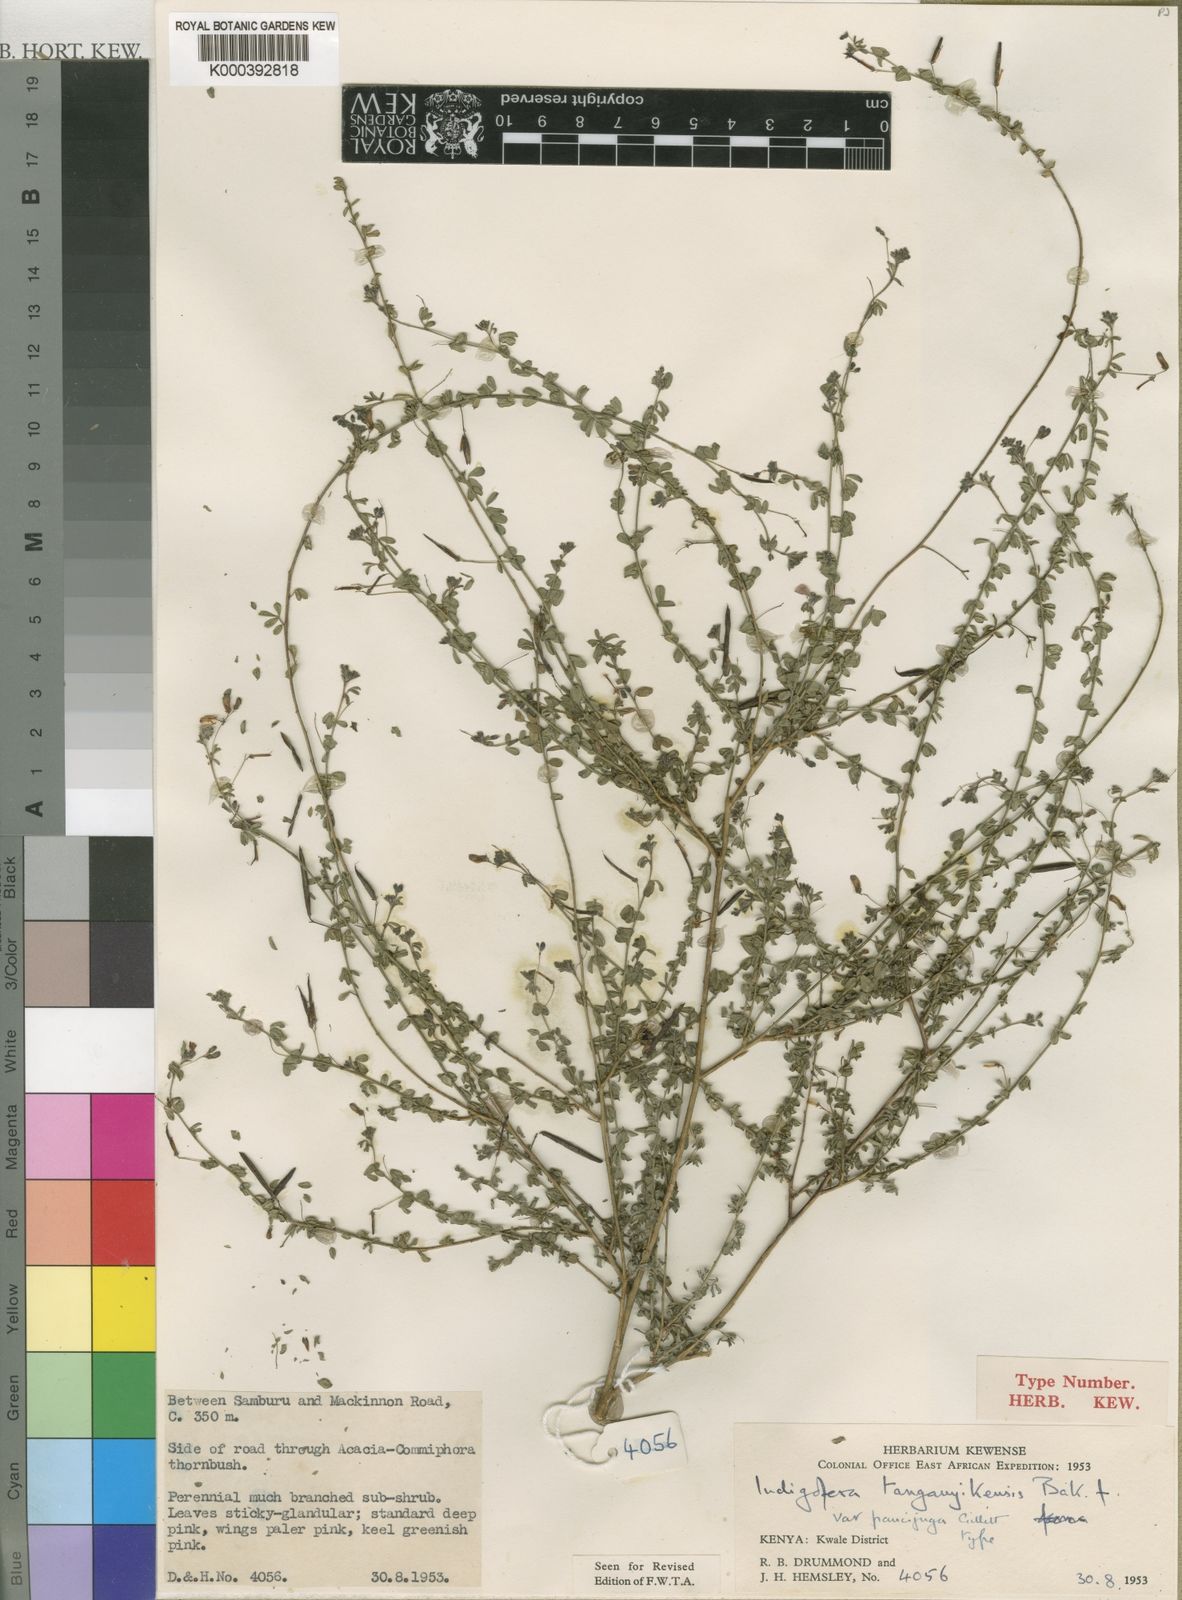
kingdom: Plantae
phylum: Tracheophyta
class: Magnoliopsida
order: Fabales
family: Fabaceae
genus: Indigofera
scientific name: Indigofera tanganyikensis
